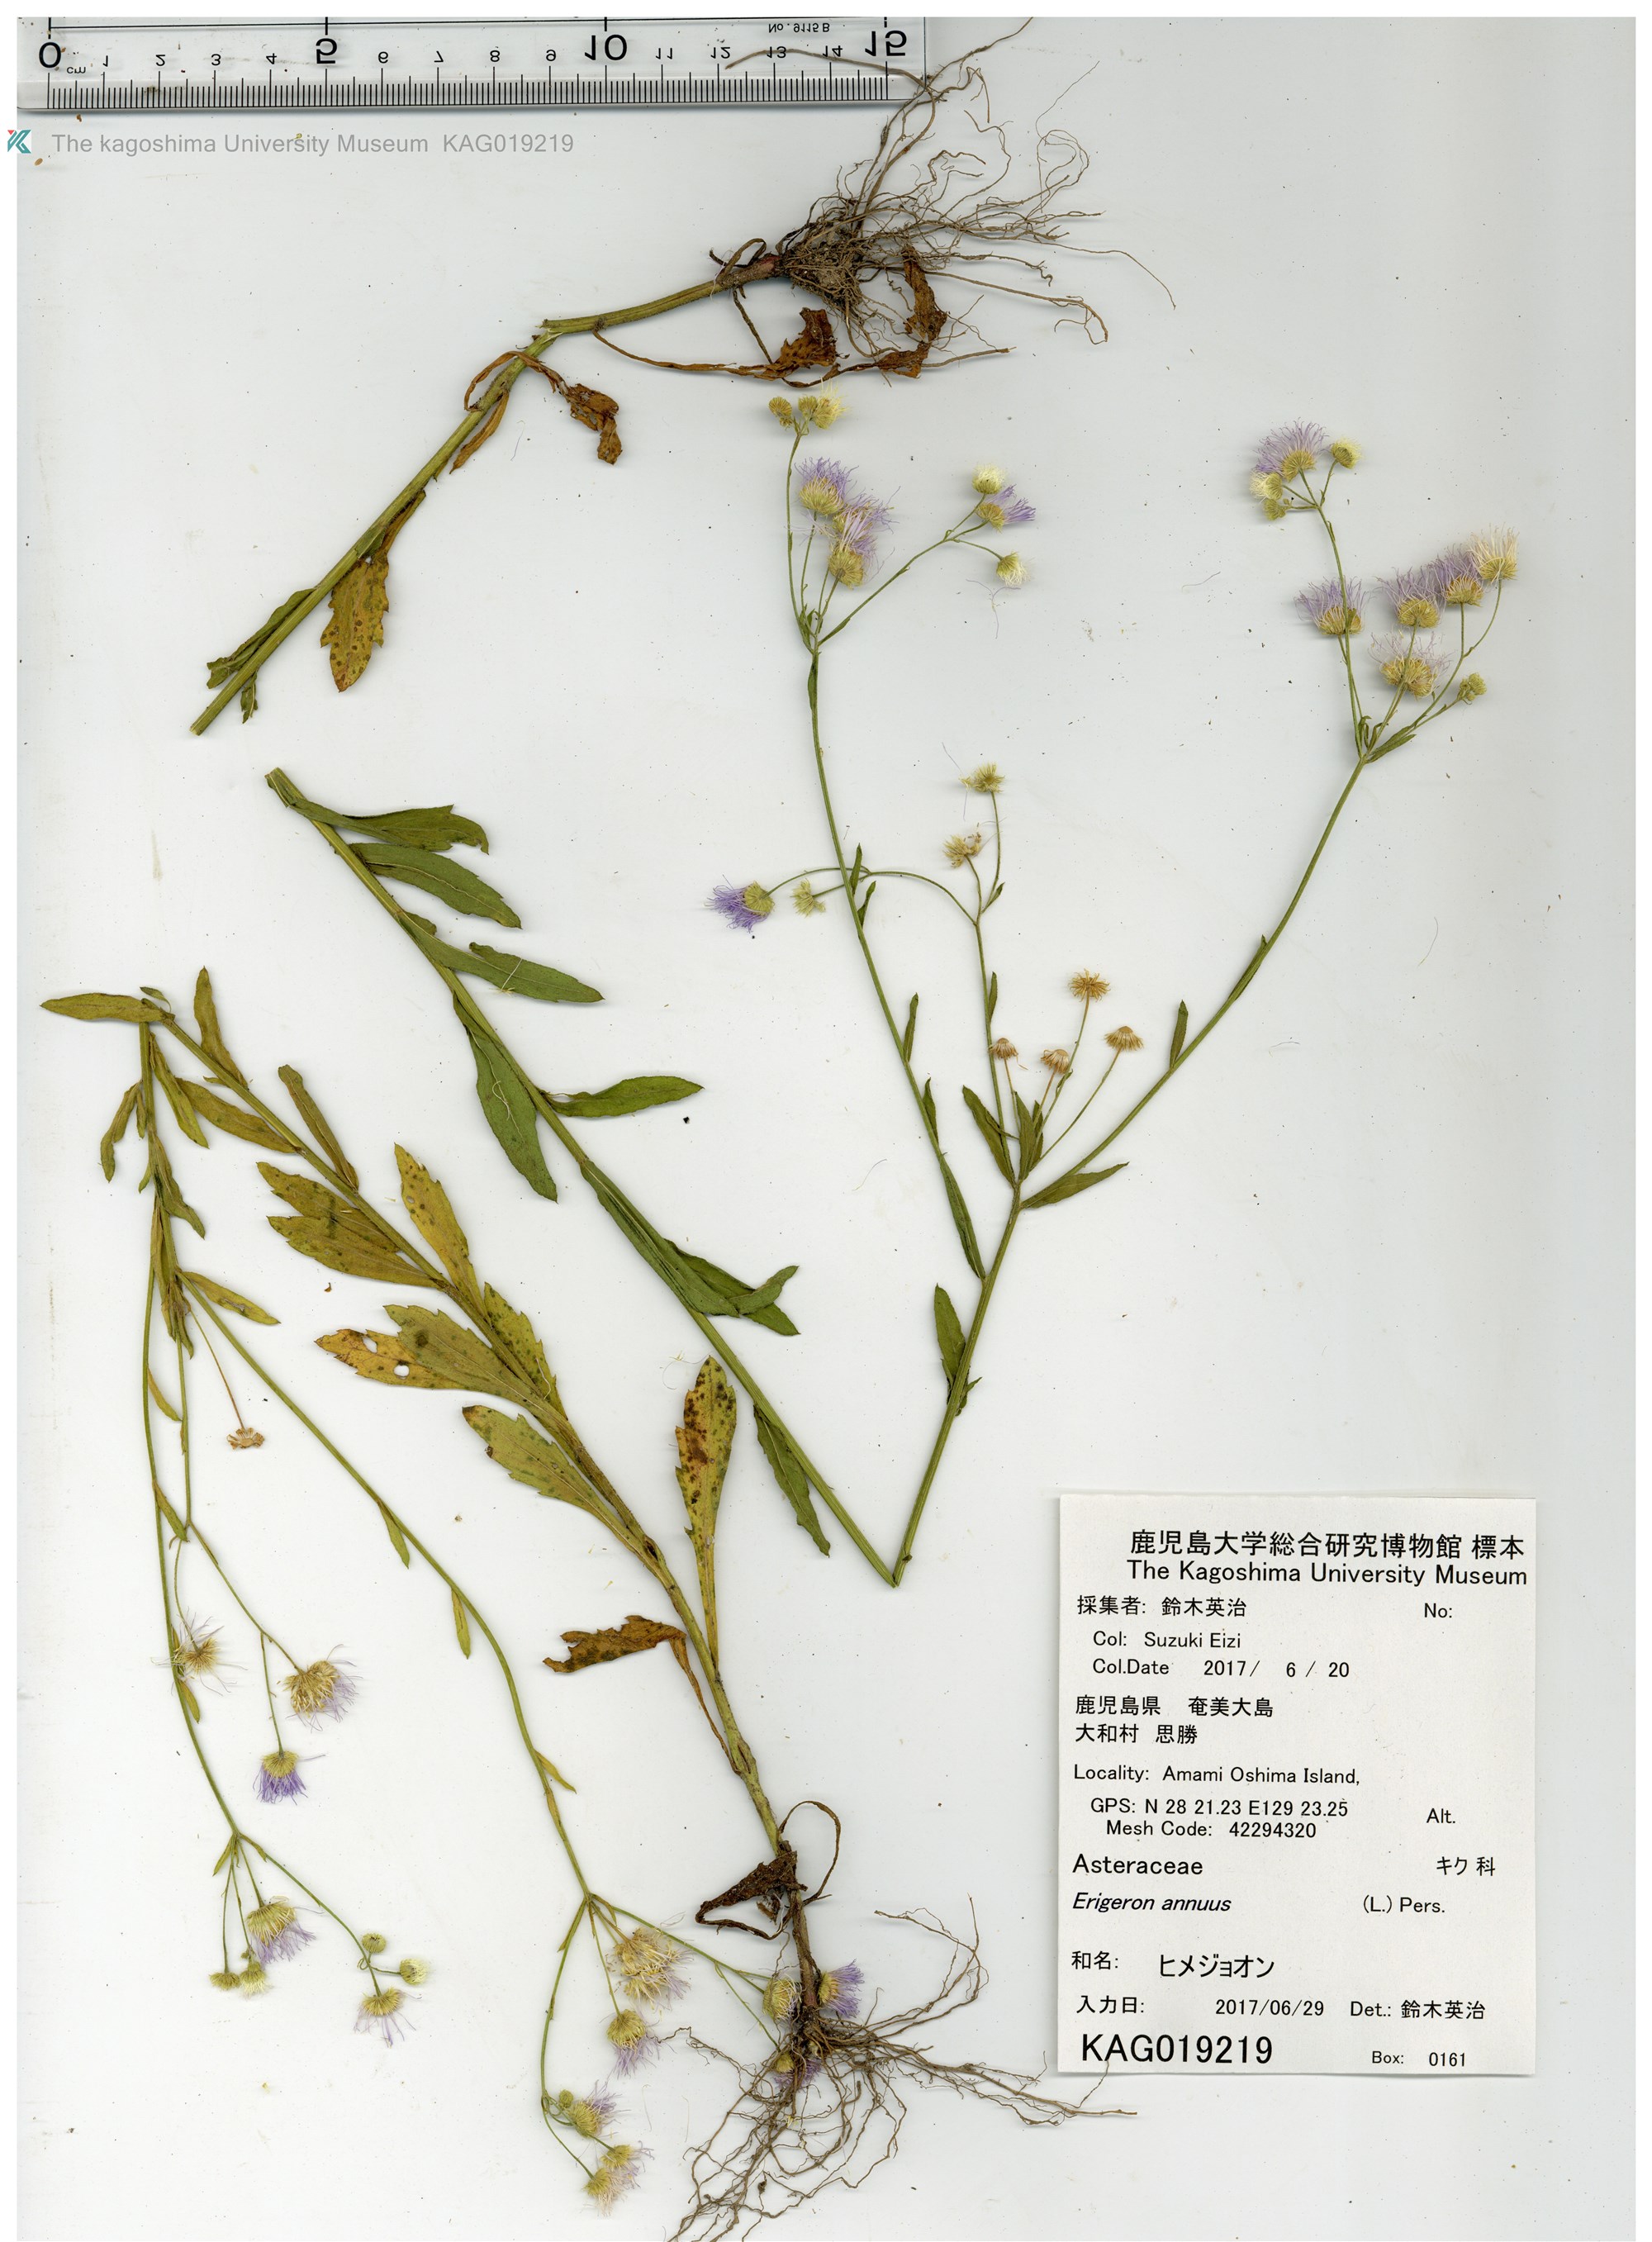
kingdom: Plantae
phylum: Tracheophyta
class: Magnoliopsida
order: Asterales
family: Asteraceae
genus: Erigeron
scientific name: Erigeron annuus
